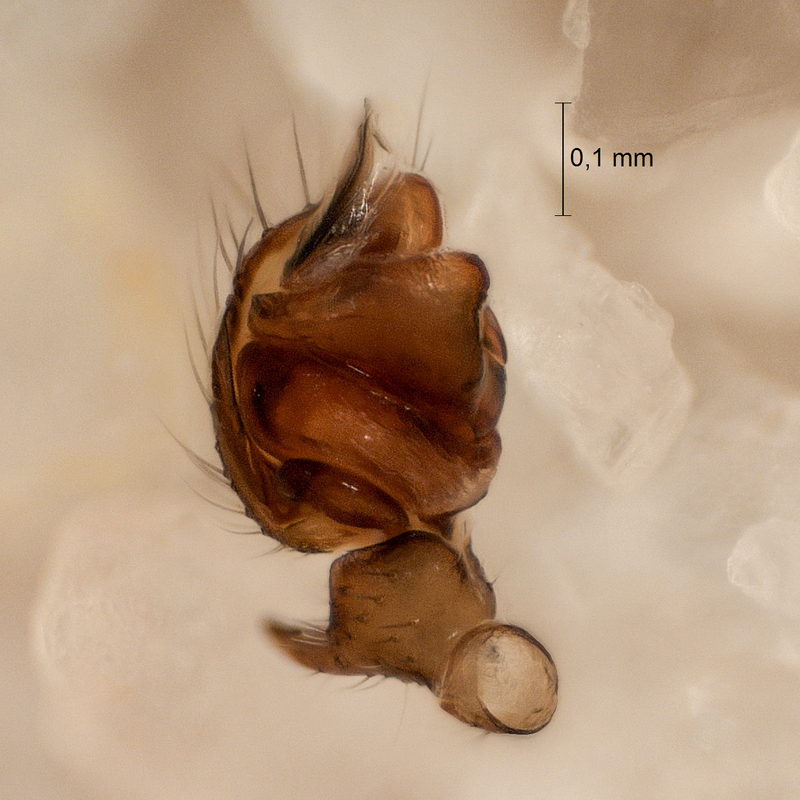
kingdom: Animalia
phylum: Arthropoda
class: Arachnida
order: Araneae
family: Linyphiidae
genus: Walckenaeria
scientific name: Walckenaeria atrotibialis
